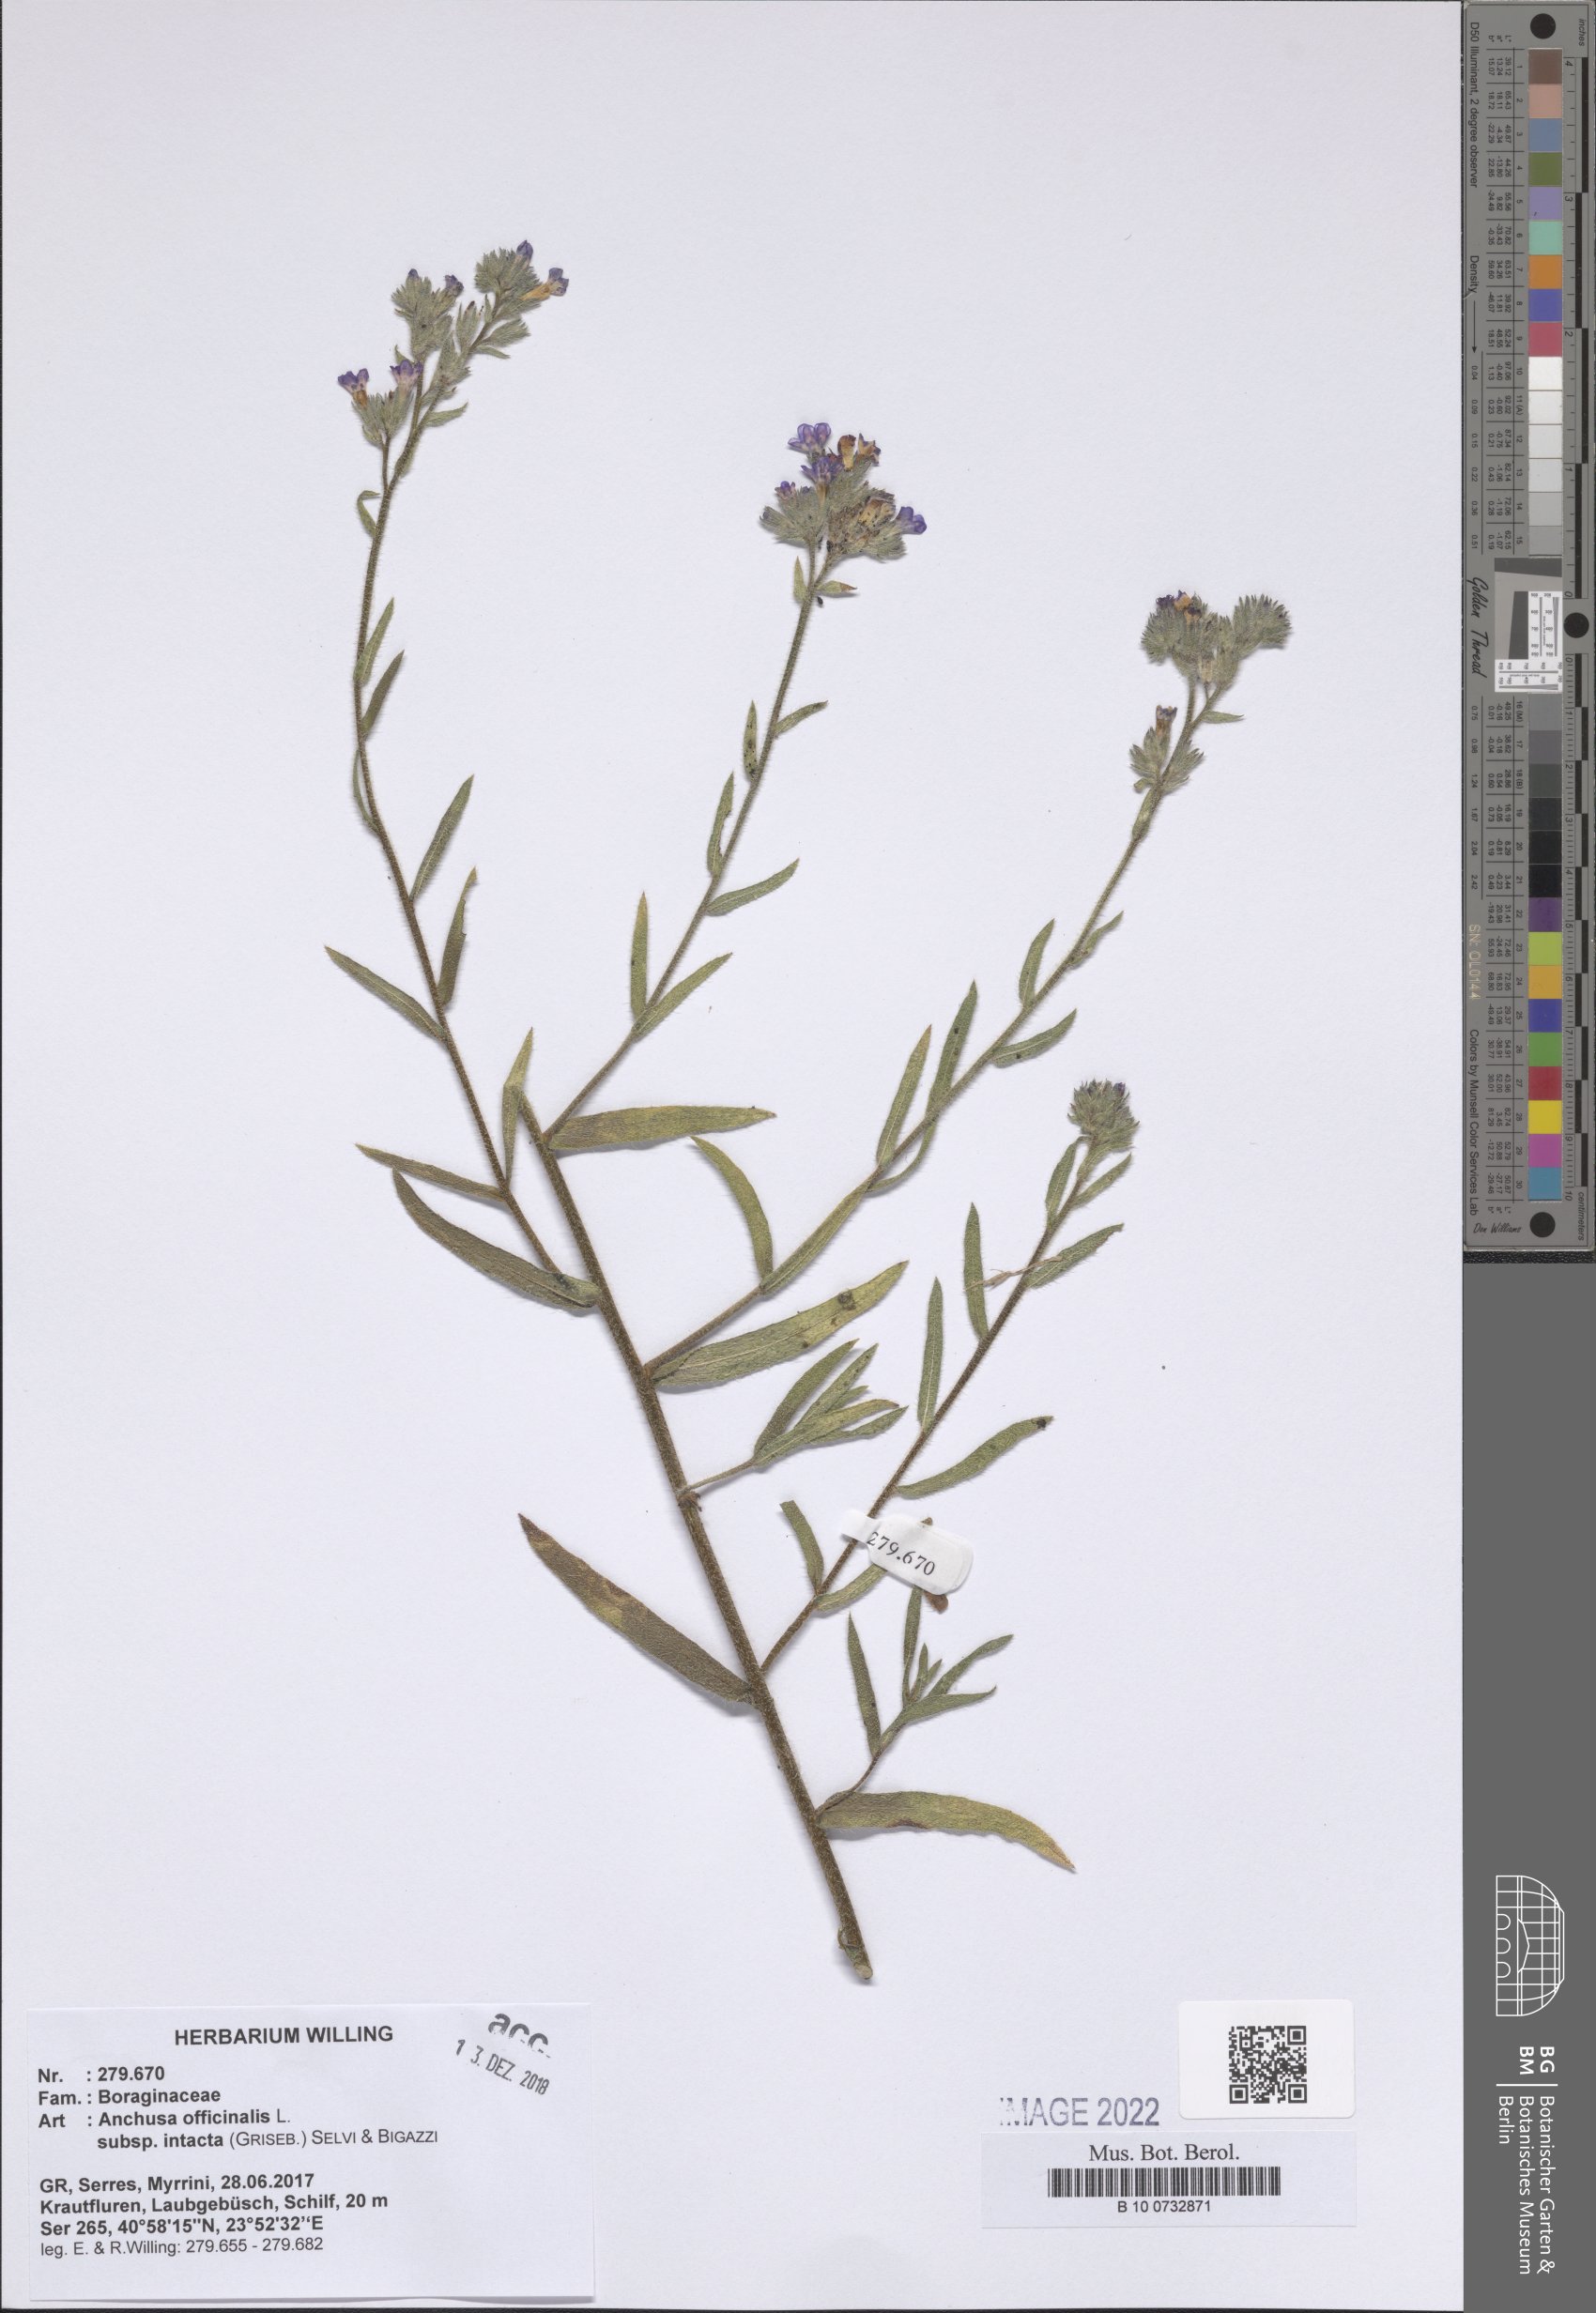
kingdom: Plantae
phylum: Tracheophyta
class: Magnoliopsida
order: Boraginales
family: Boraginaceae
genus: Anchusa
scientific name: Anchusa officinalis
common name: Alkanet
